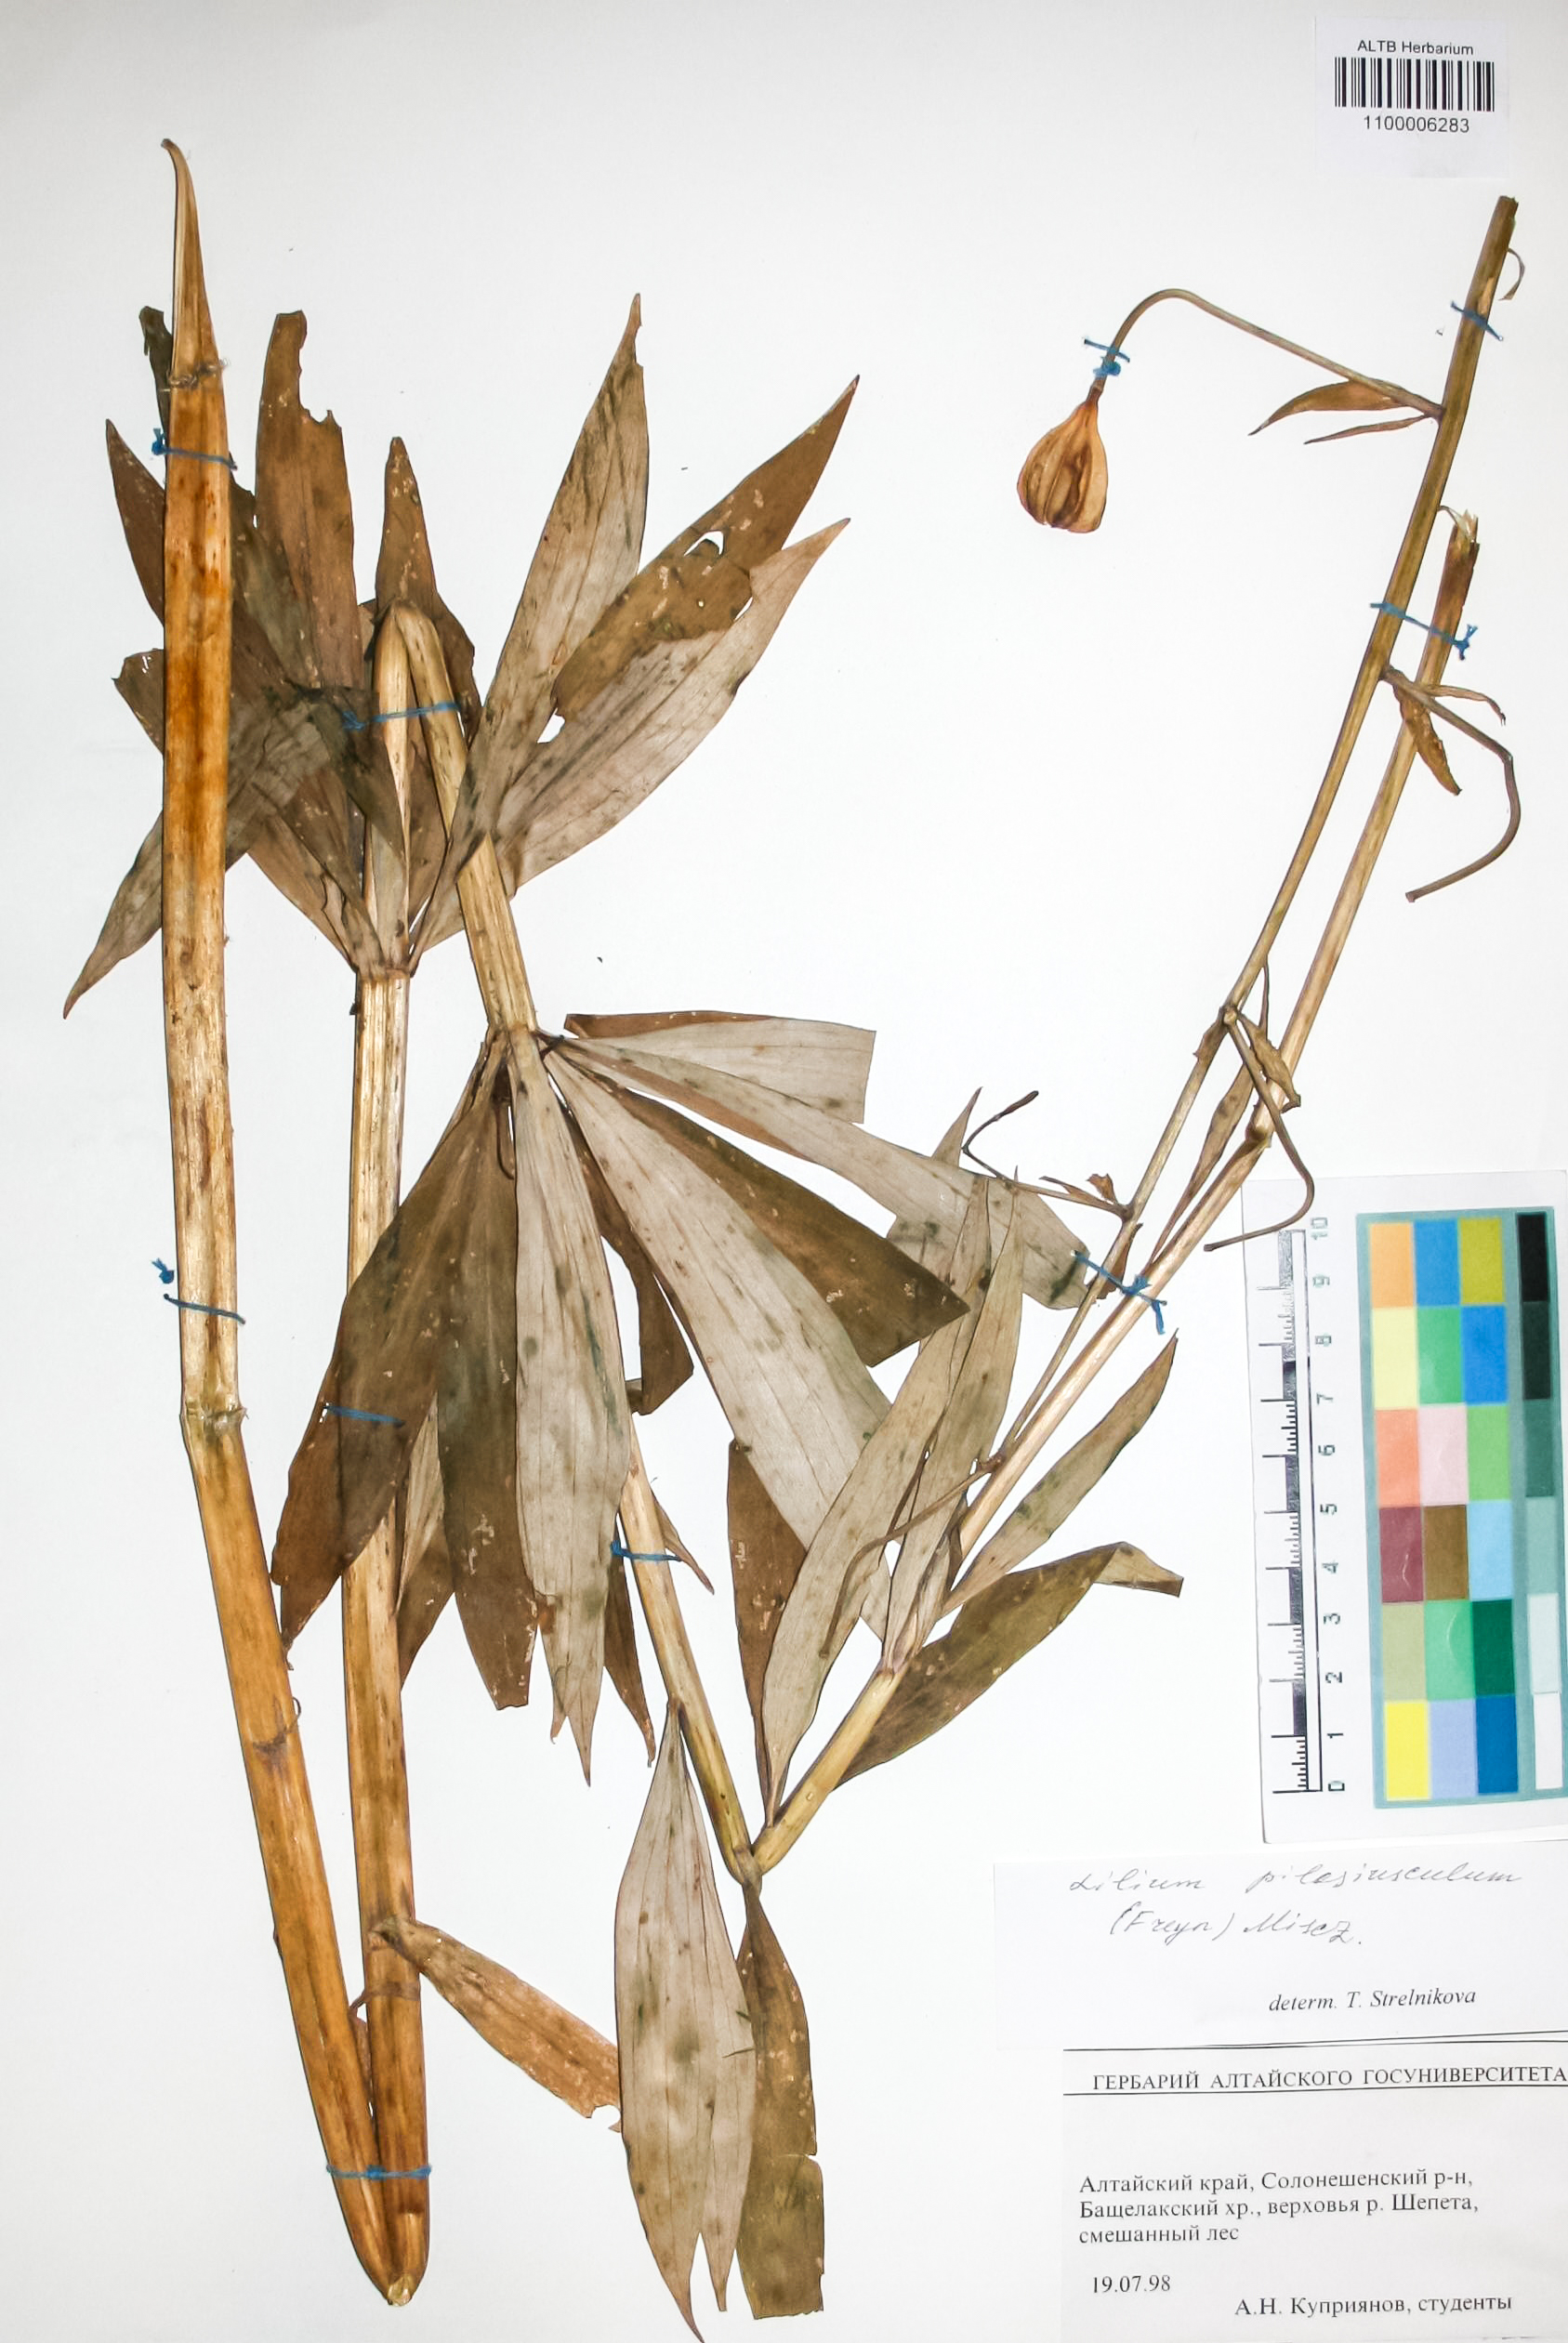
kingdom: Plantae
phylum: Tracheophyta
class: Liliopsida
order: Liliales
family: Liliaceae
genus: Lilium
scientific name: Lilium martagon
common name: Martagon lily
